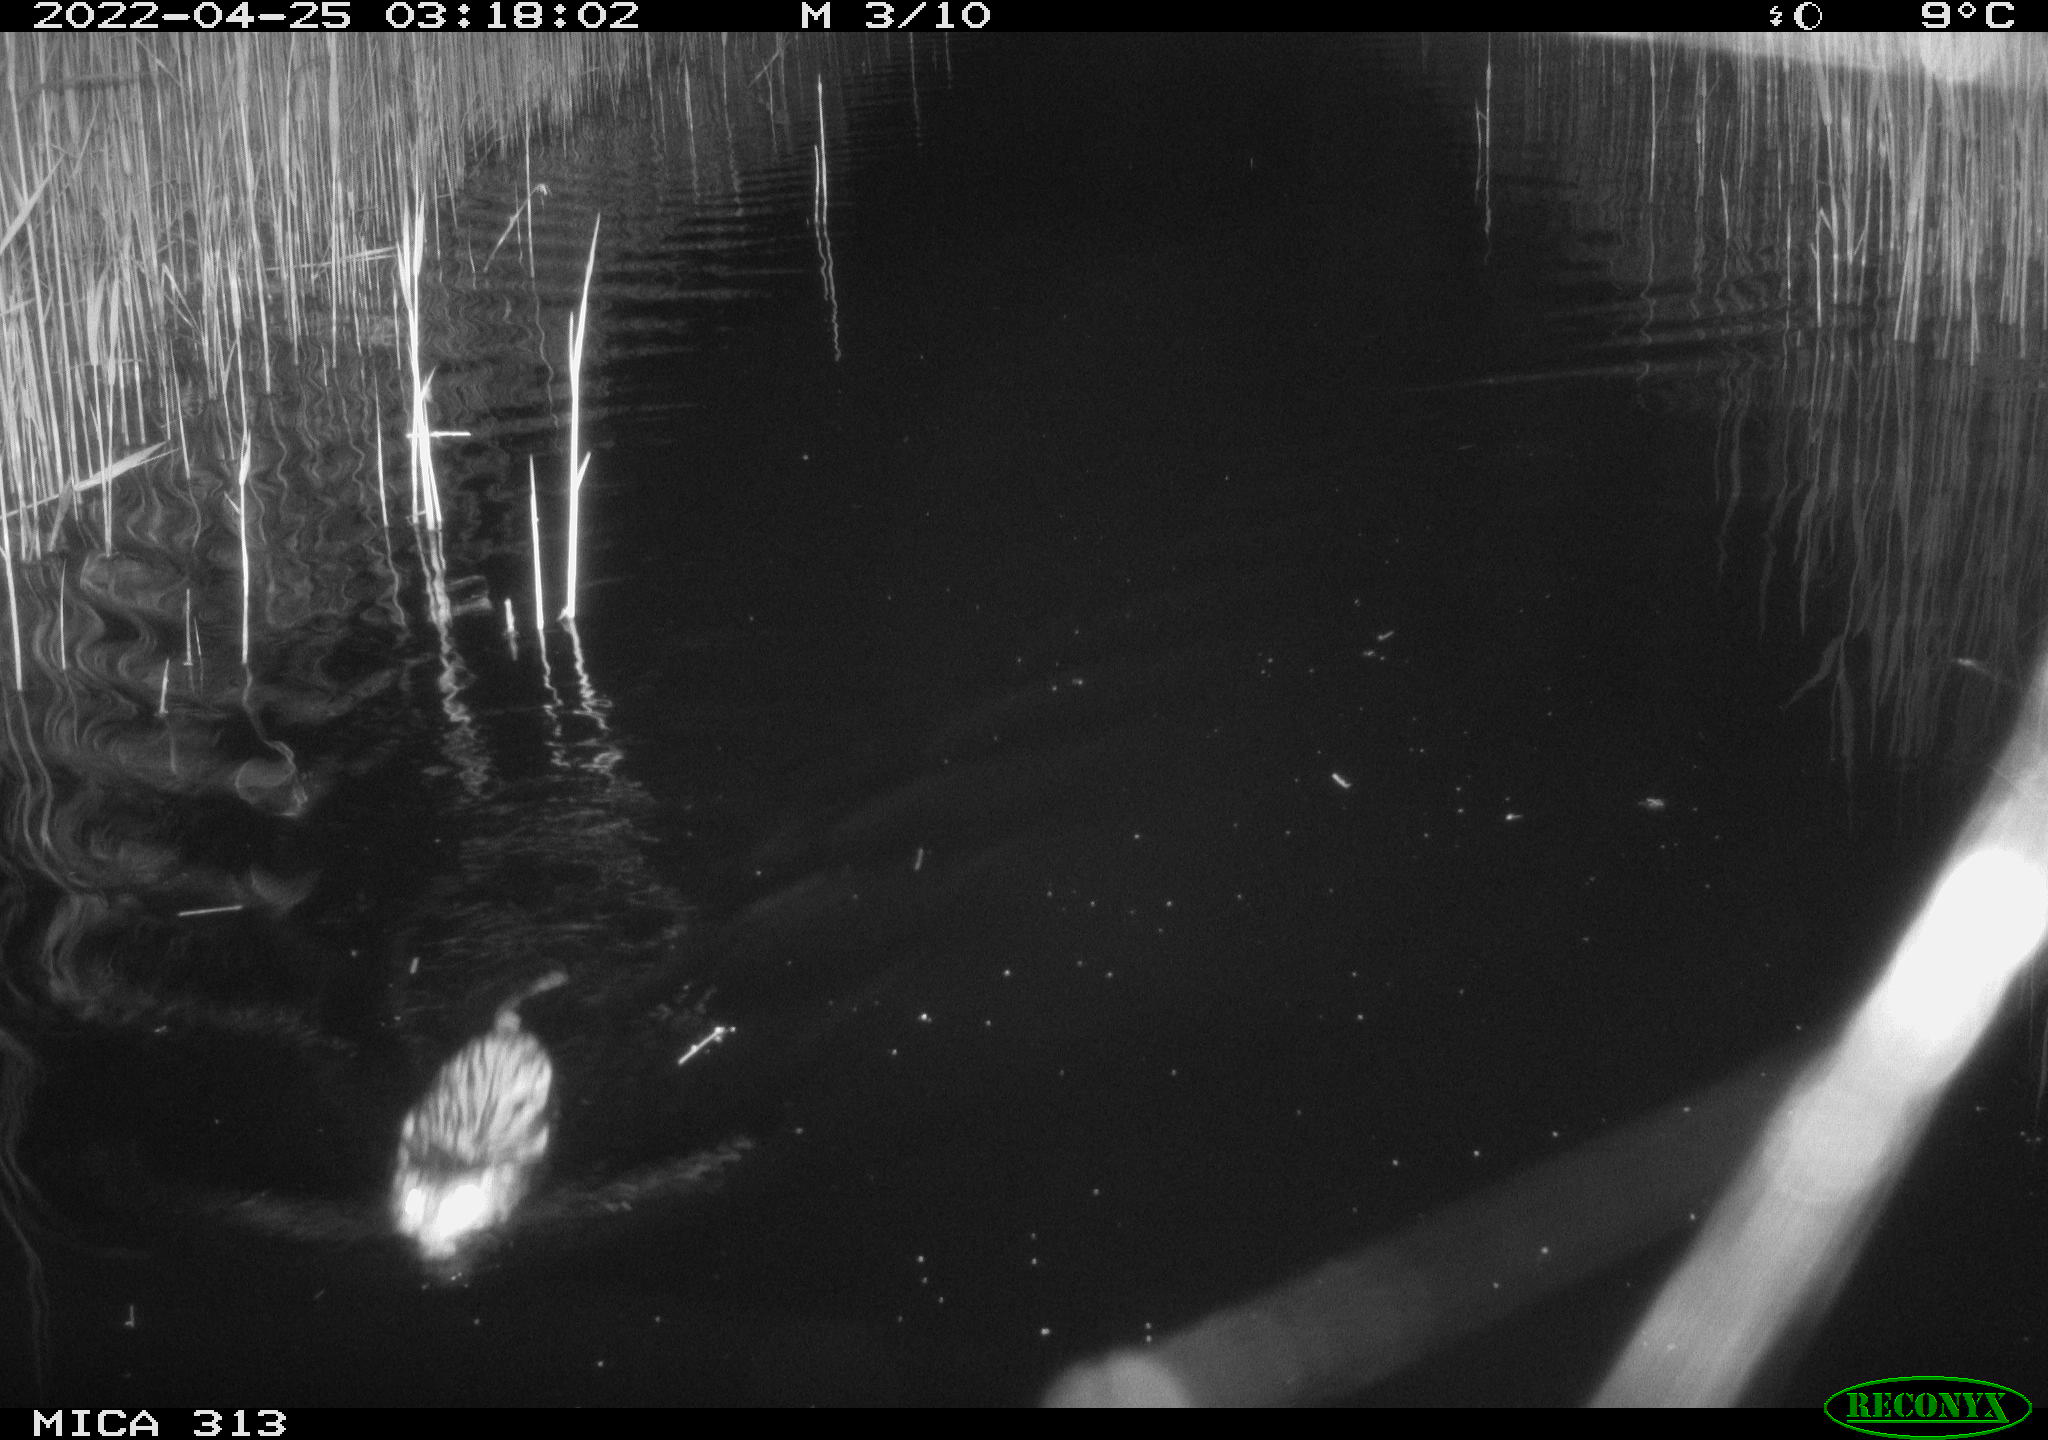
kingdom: Animalia
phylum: Chordata
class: Mammalia
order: Rodentia
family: Cricetidae
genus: Ondatra
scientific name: Ondatra zibethicus
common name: Muskrat
